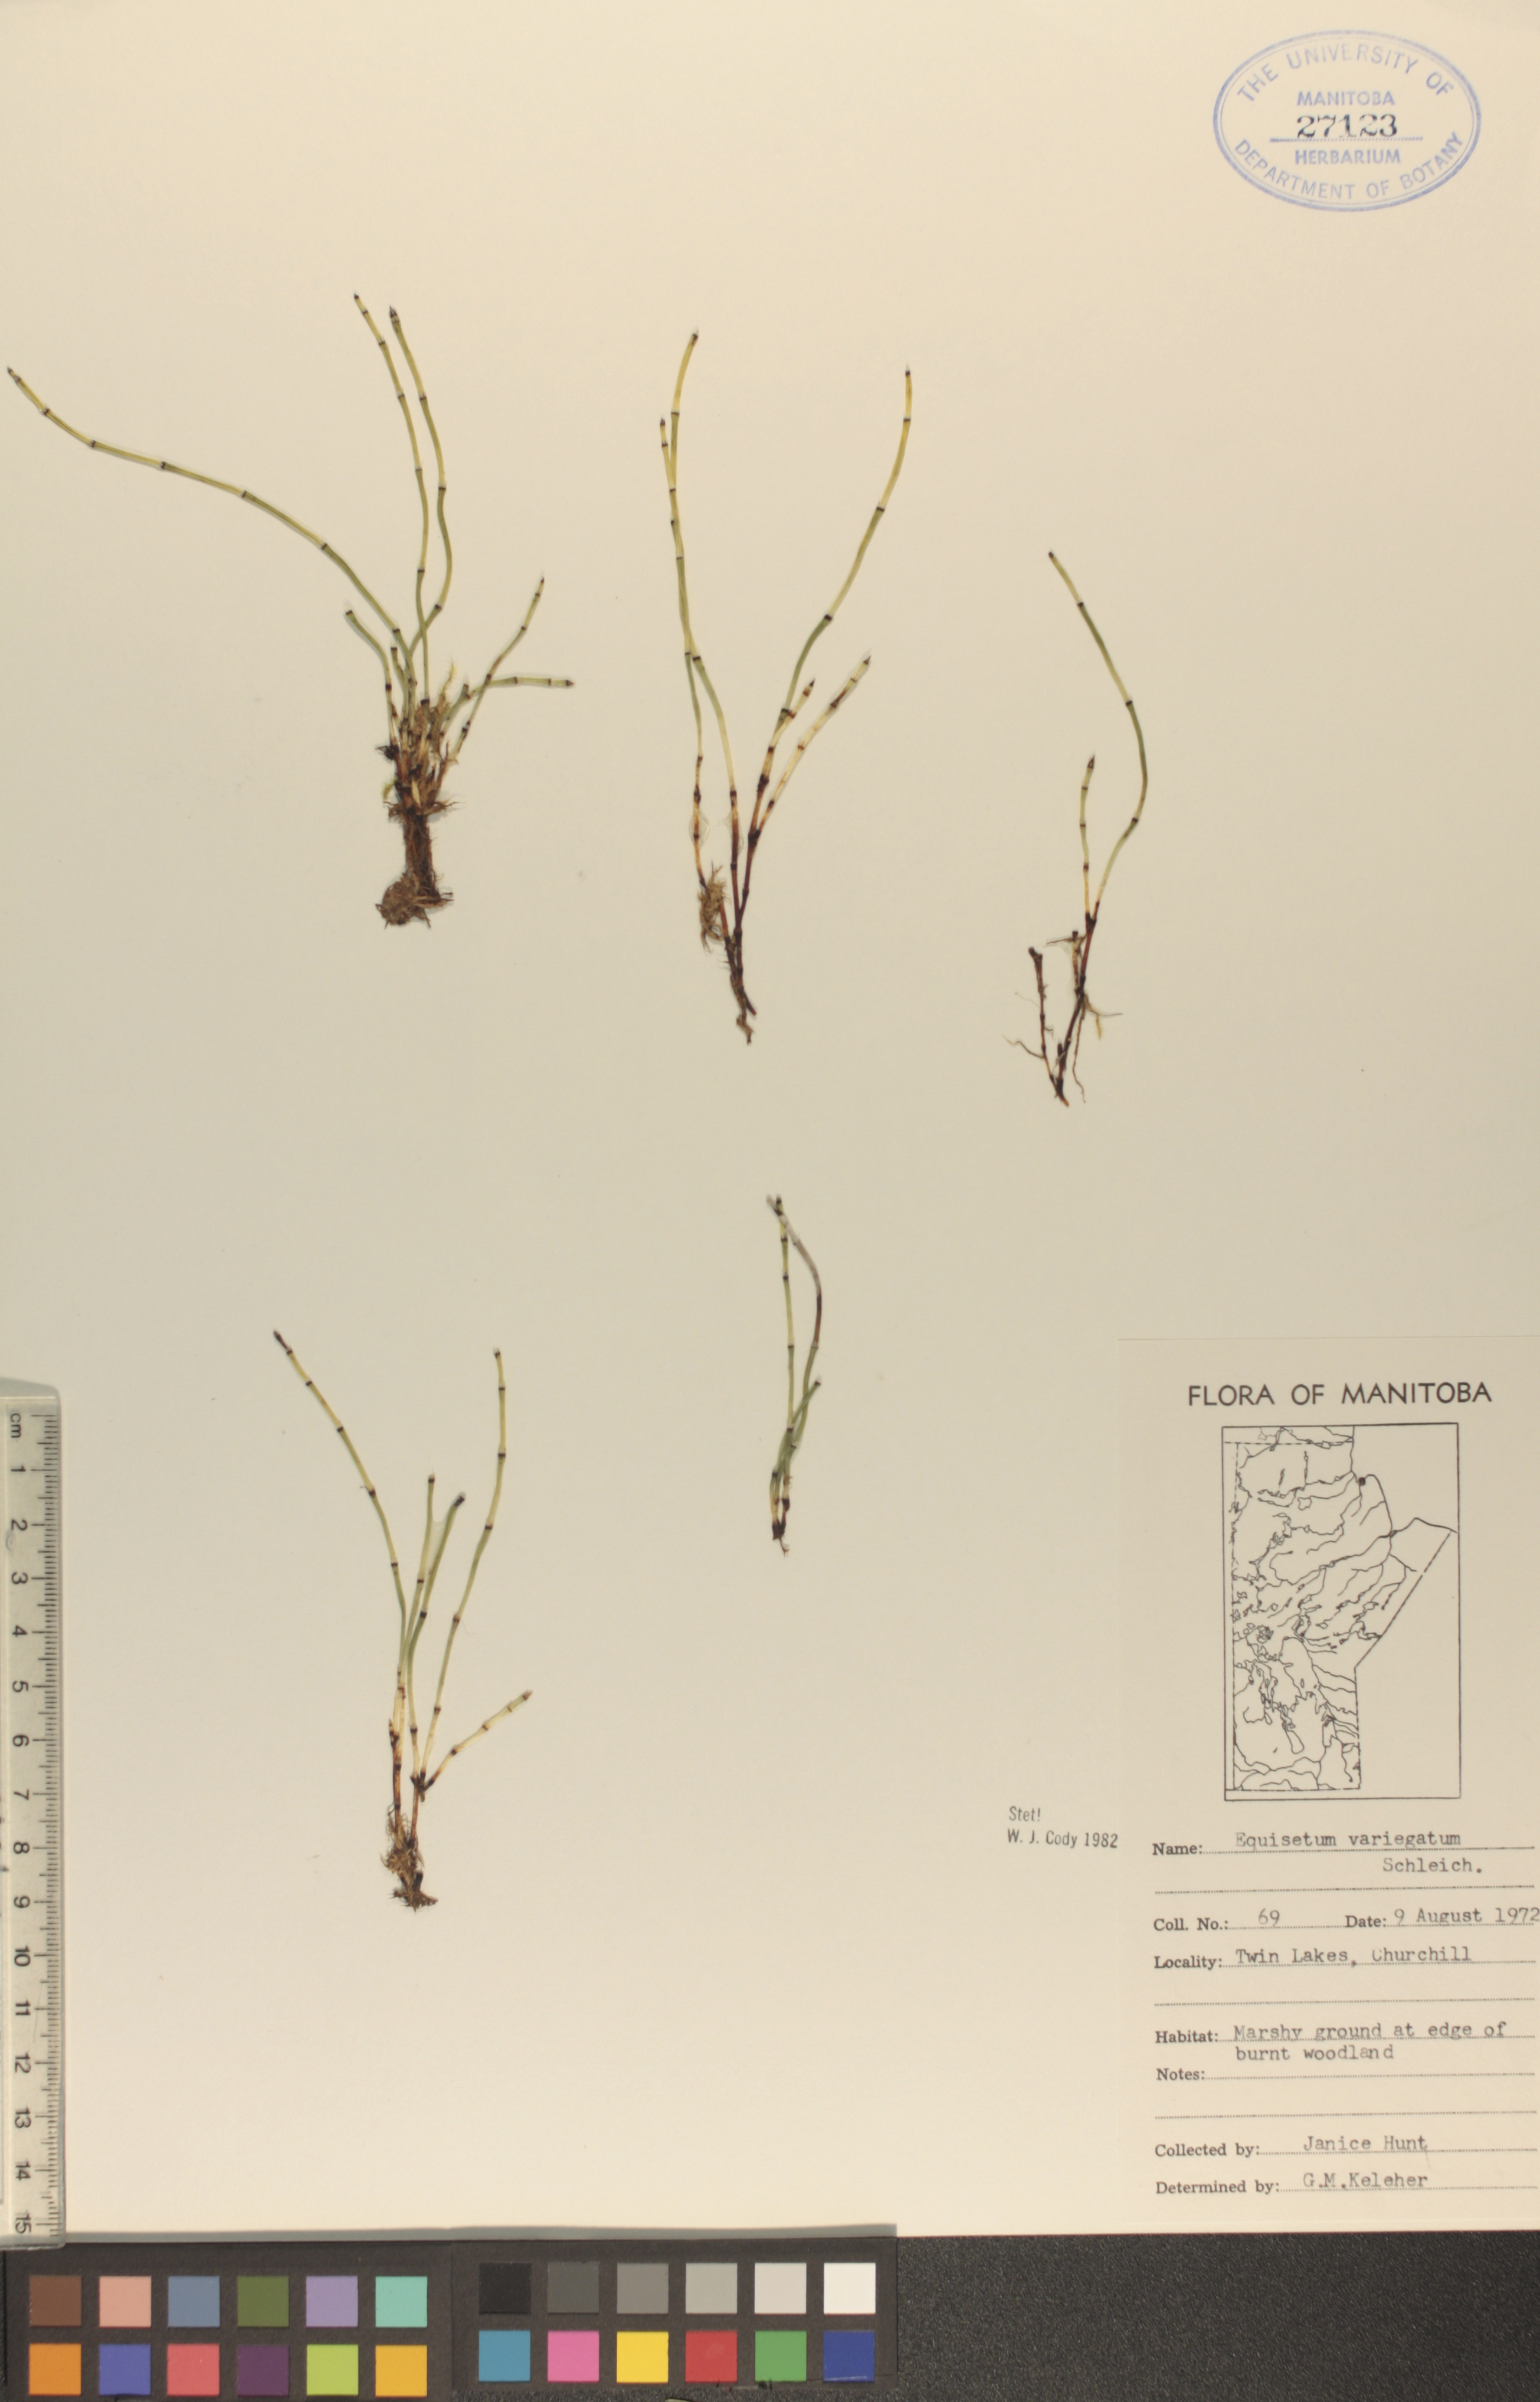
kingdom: Plantae
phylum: Tracheophyta
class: Polypodiopsida
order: Equisetales
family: Equisetaceae
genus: Equisetum
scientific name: Equisetum variegatum
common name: Variegated horsetail
